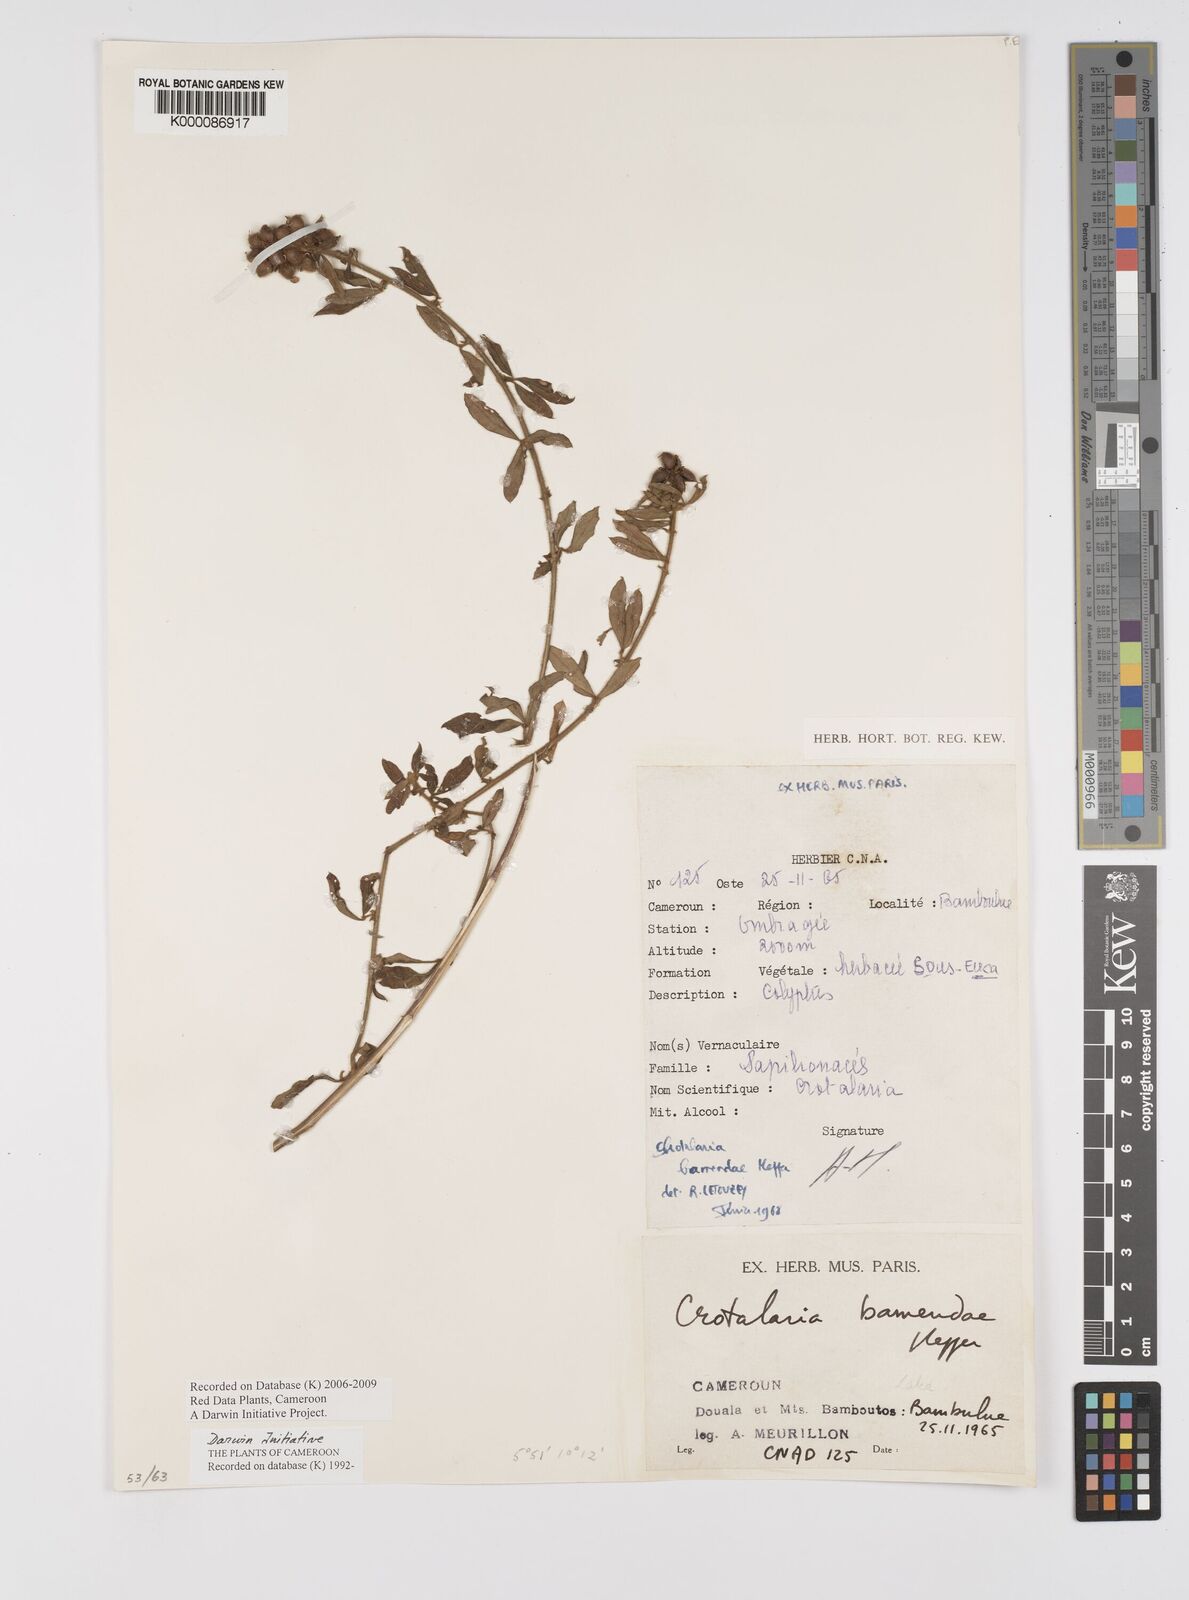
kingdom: Plantae
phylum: Tracheophyta
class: Magnoliopsida
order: Fabales
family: Fabaceae
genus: Crotalaria
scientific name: Crotalaria bamendae
